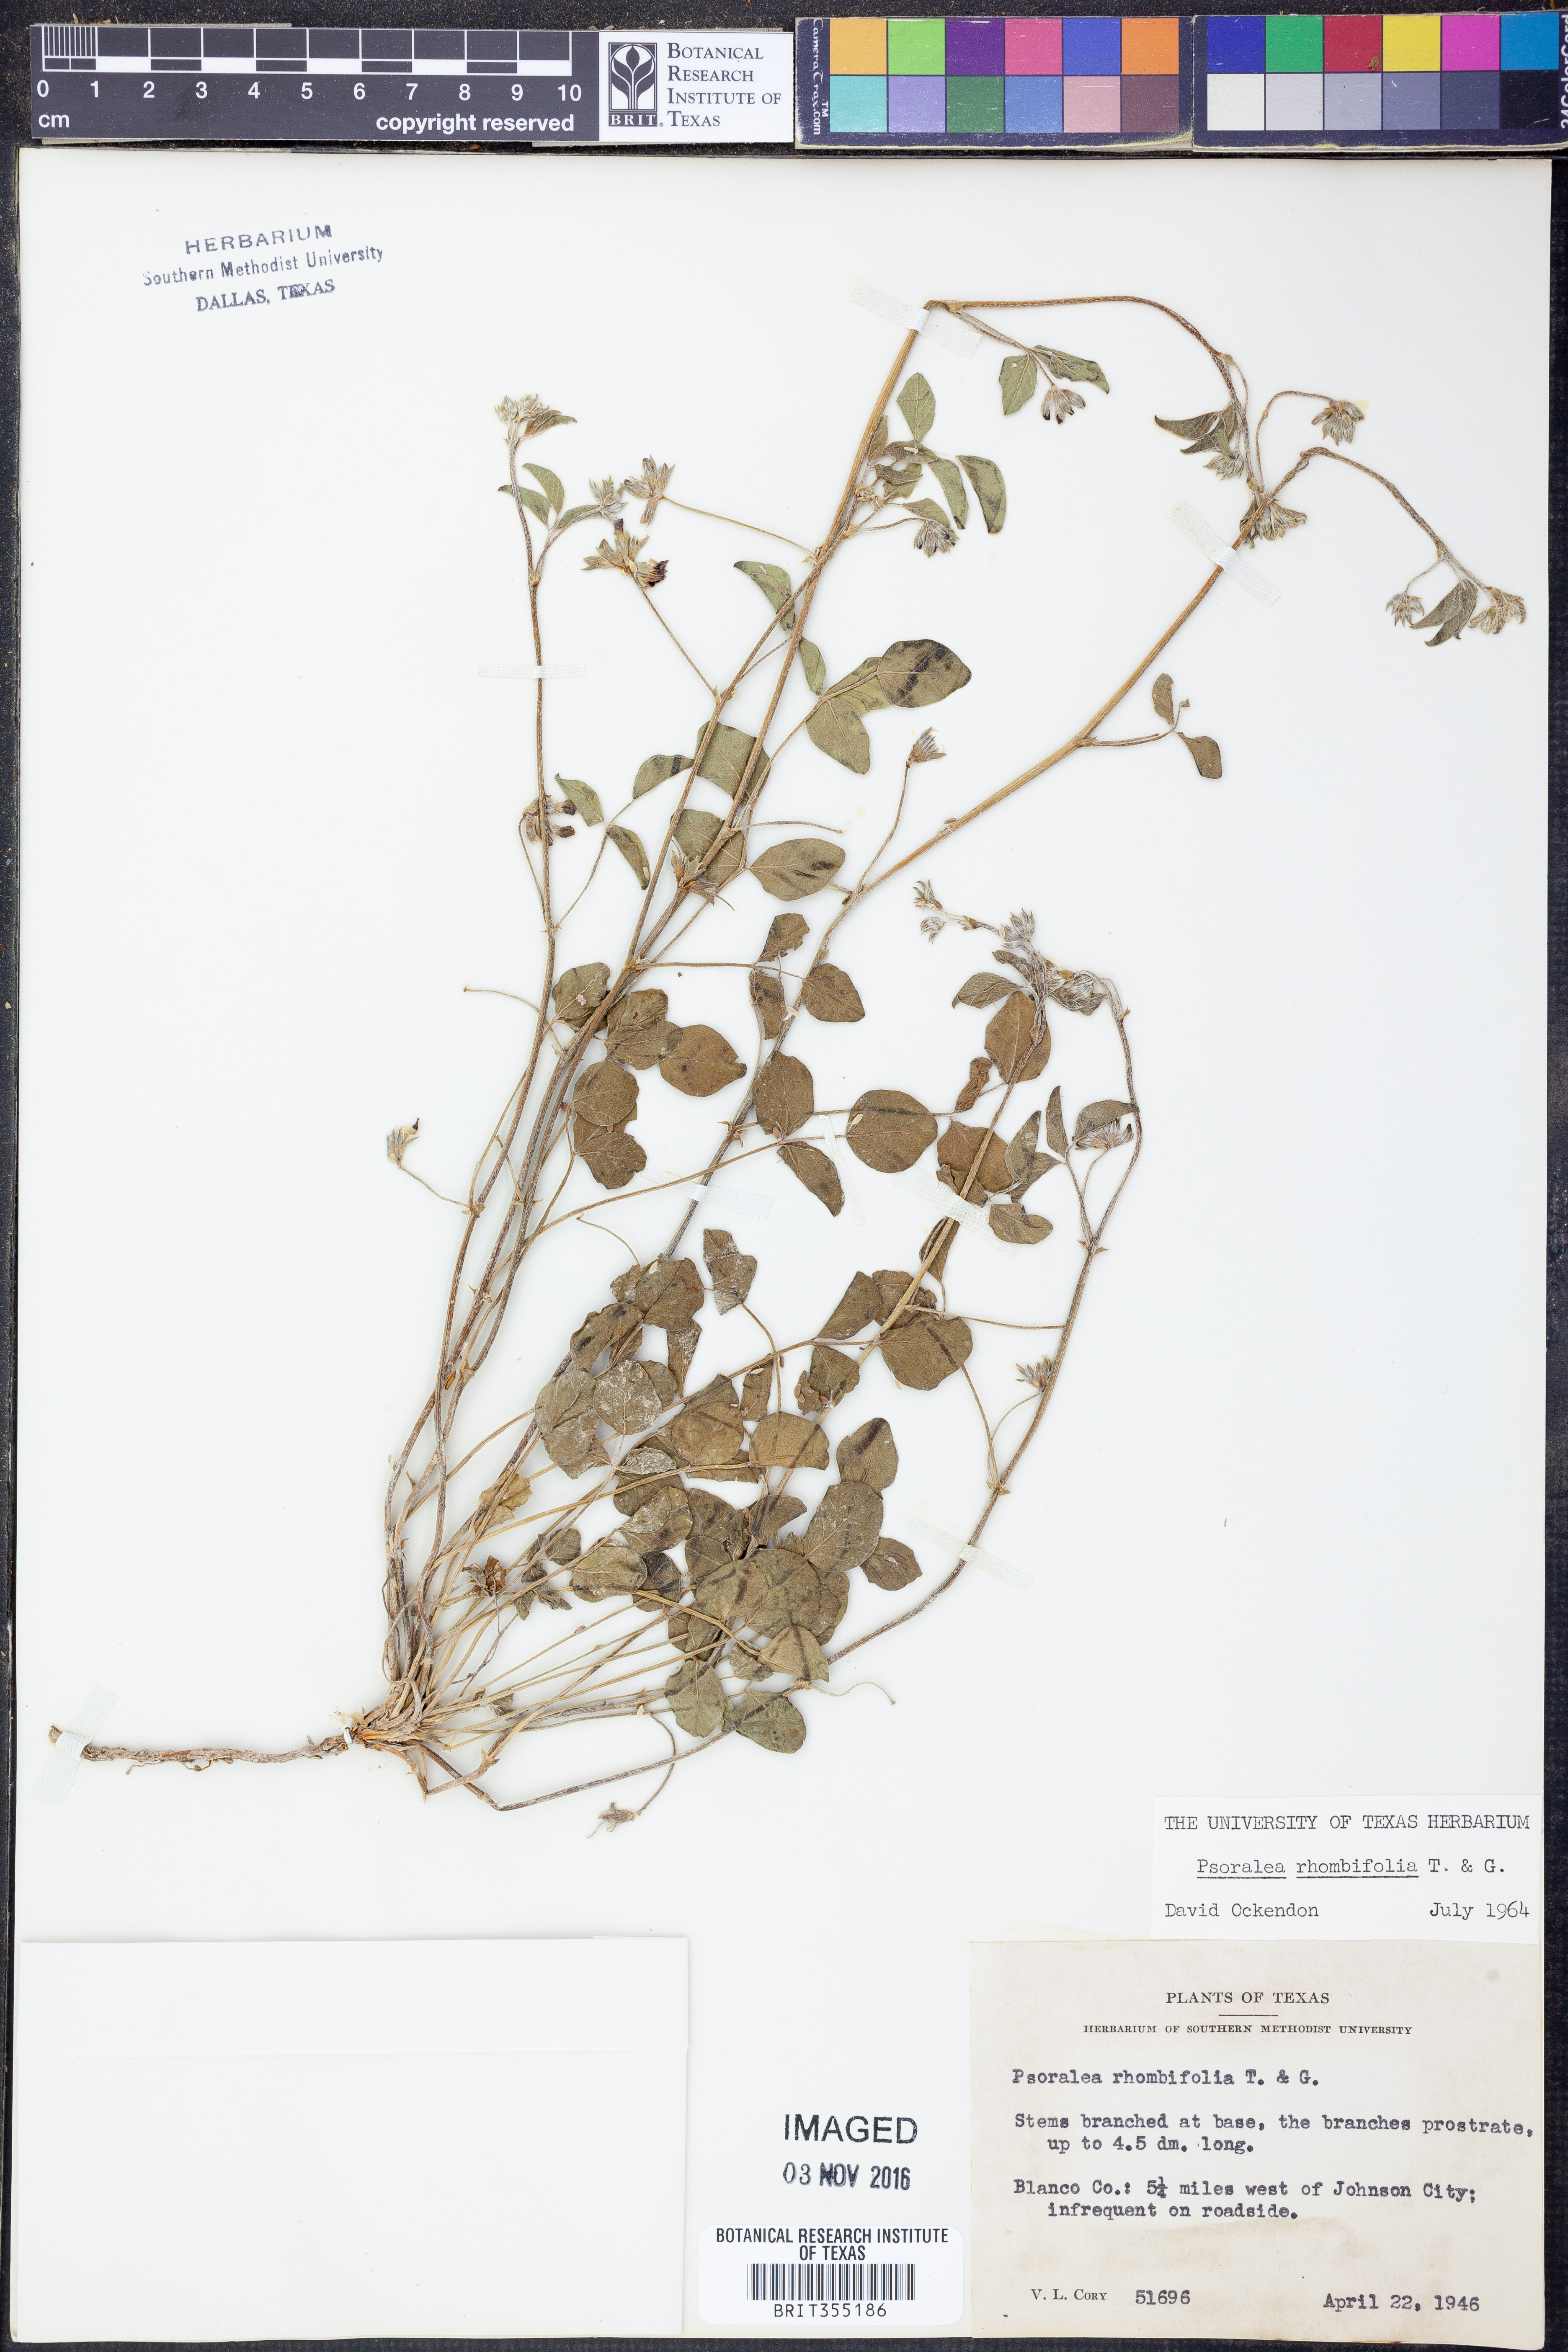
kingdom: Plantae
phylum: Tracheophyta
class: Magnoliopsida
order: Fabales
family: Fabaceae
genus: Pediomelum
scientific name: Pediomelum rhombifolium
